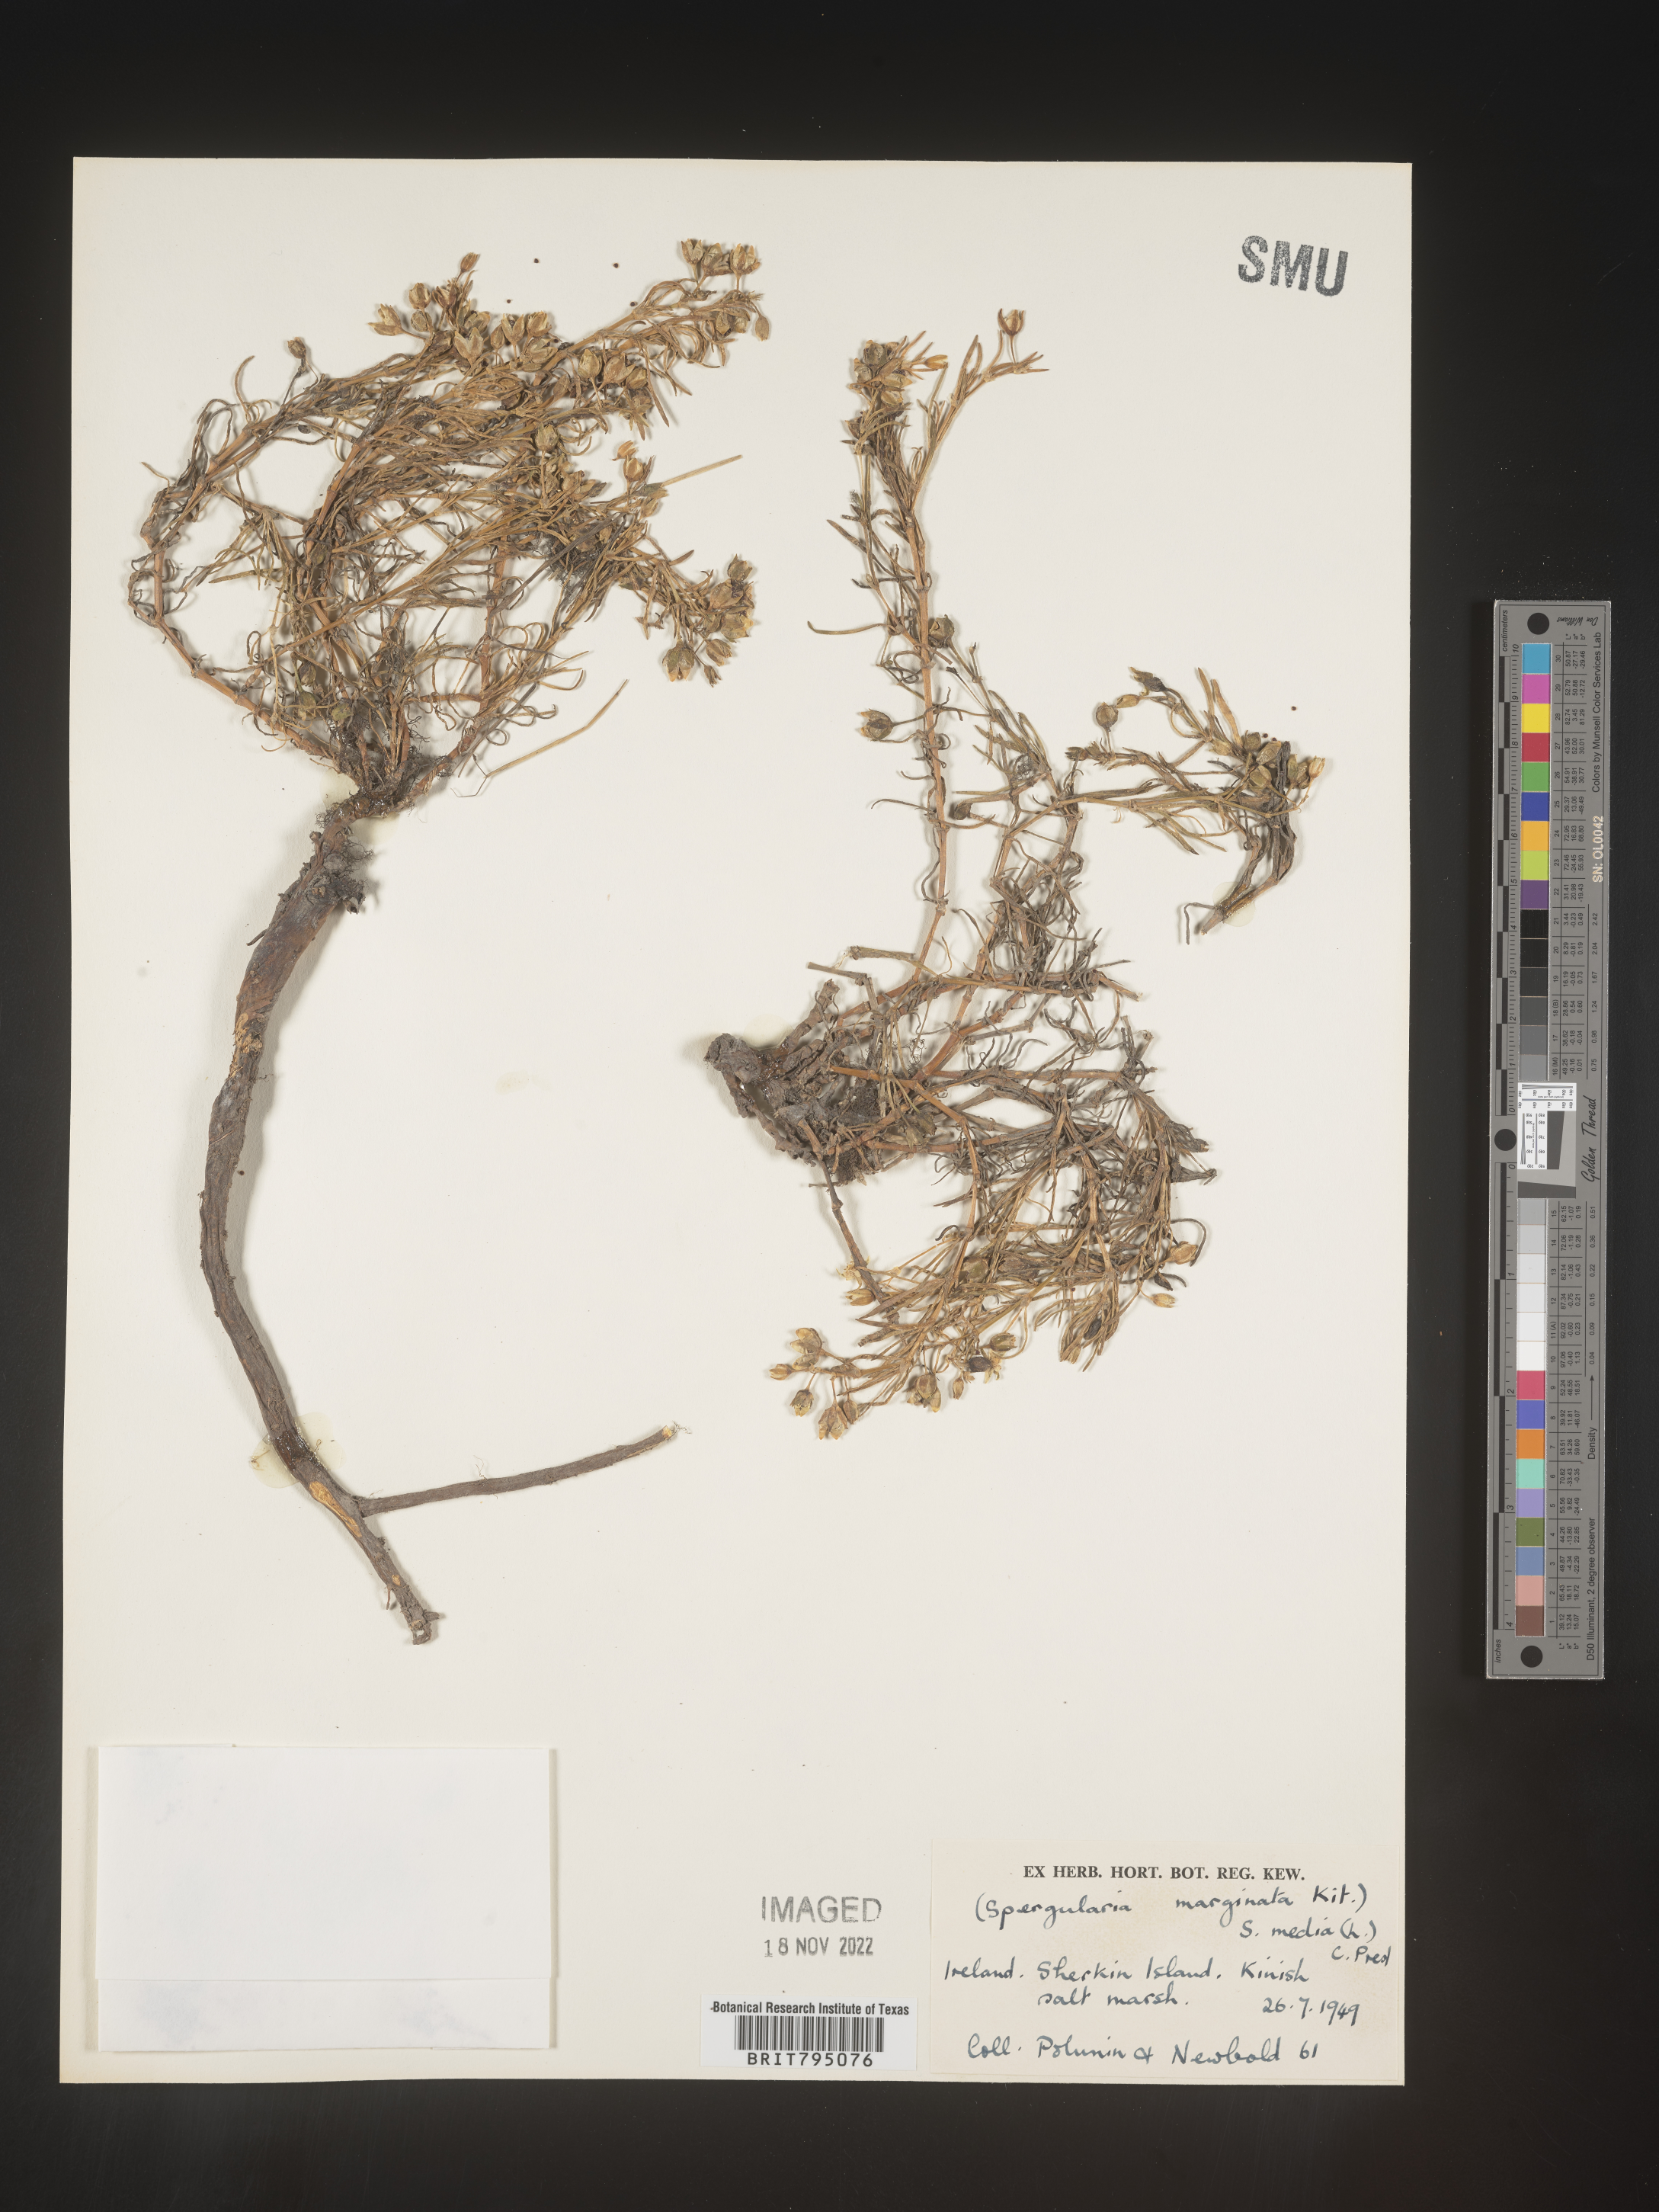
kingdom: Plantae
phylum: Tracheophyta
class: Magnoliopsida
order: Caryophyllales
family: Caryophyllaceae
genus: Spergularia
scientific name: Spergularia media
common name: Greater sea-spurrey
